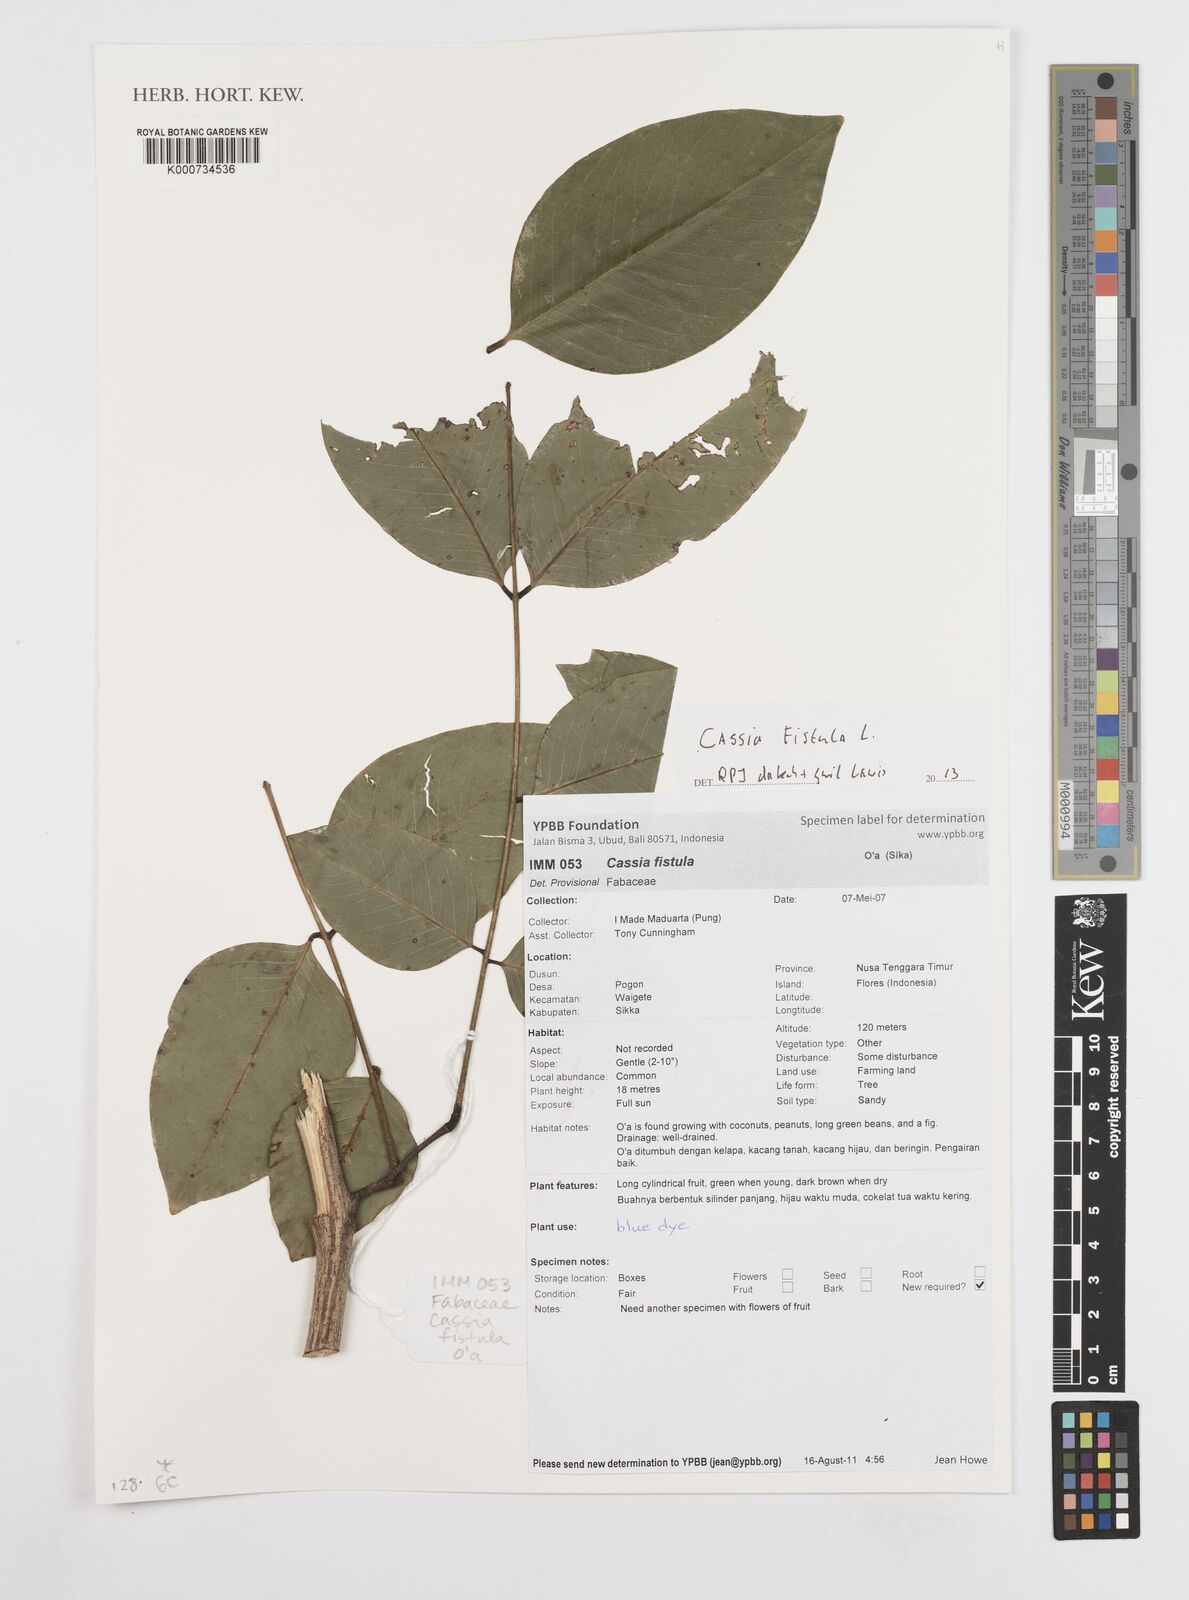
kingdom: Plantae
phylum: Tracheophyta
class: Magnoliopsida
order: Fabales
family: Fabaceae
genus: Cassia
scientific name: Cassia fistula
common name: Golden shower
